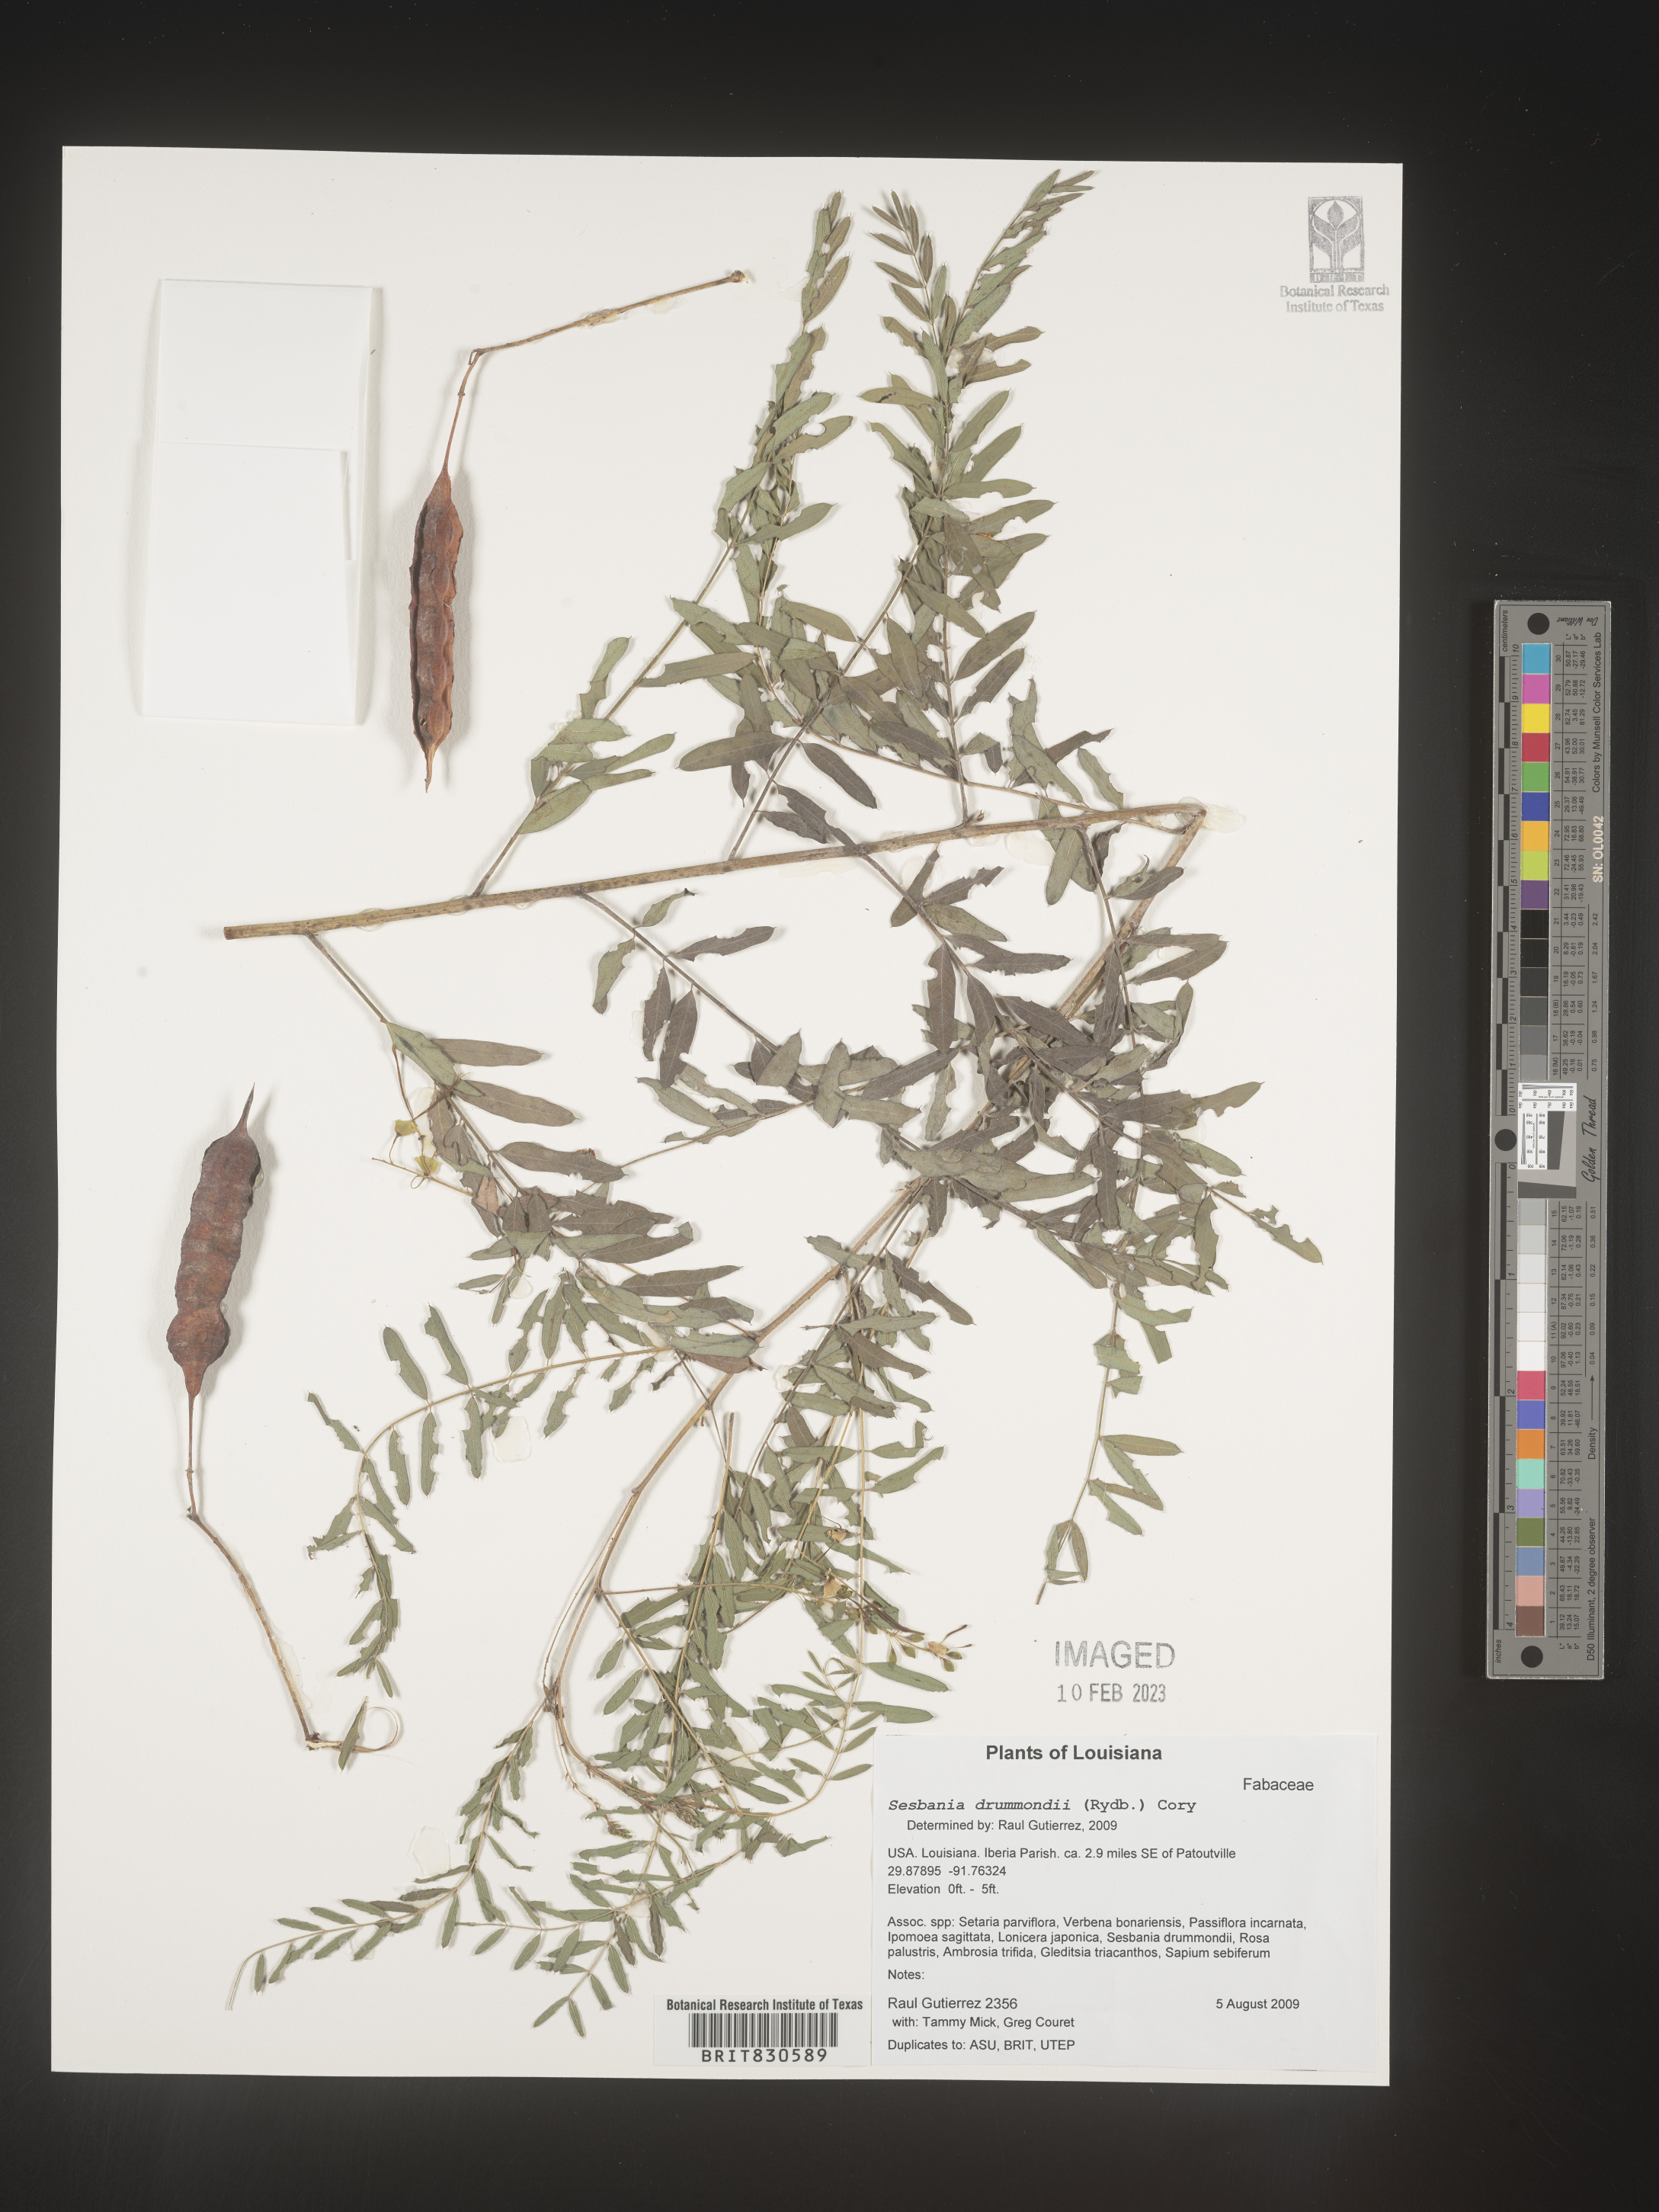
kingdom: Plantae
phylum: Tracheophyta
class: Magnoliopsida
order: Fabales
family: Fabaceae
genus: Sesbania
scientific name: Sesbania drummondii
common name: Poison-bean
